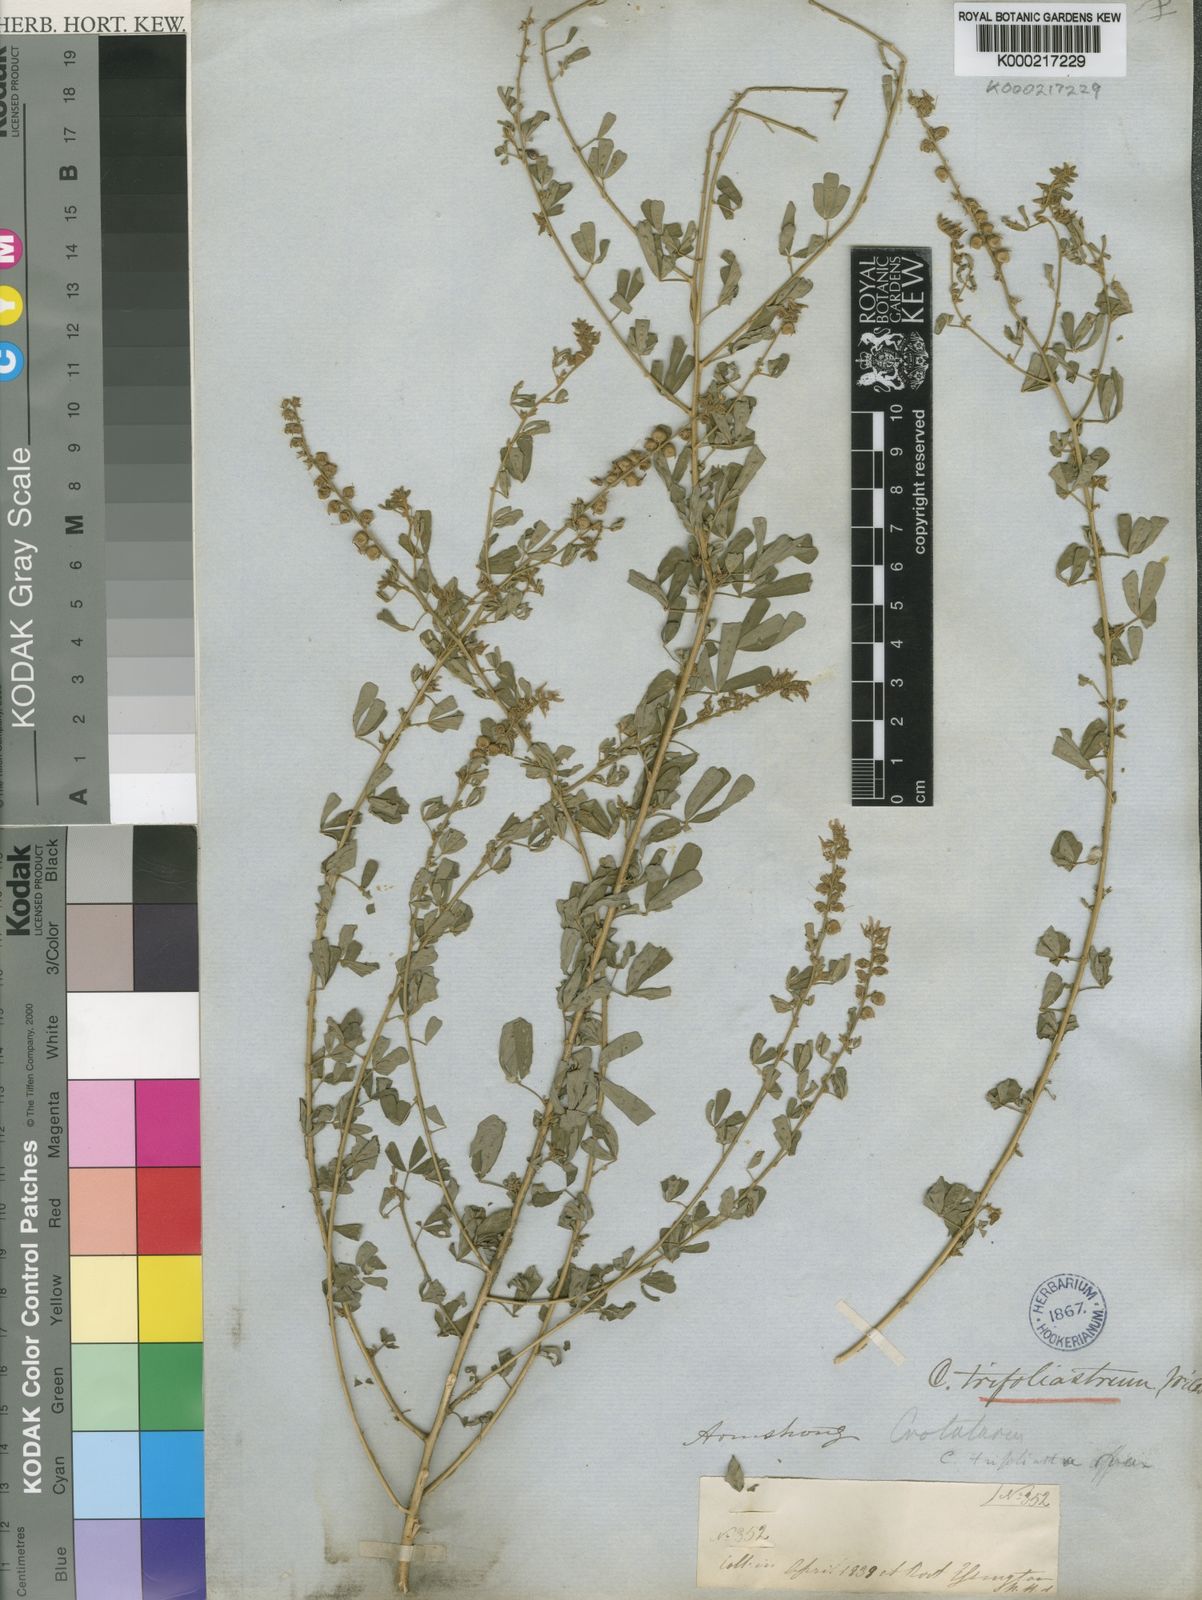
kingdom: Plantae
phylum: Tracheophyta
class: Magnoliopsida
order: Fabales
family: Fabaceae
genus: Crotalaria
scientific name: Crotalaria trifoliastrum
